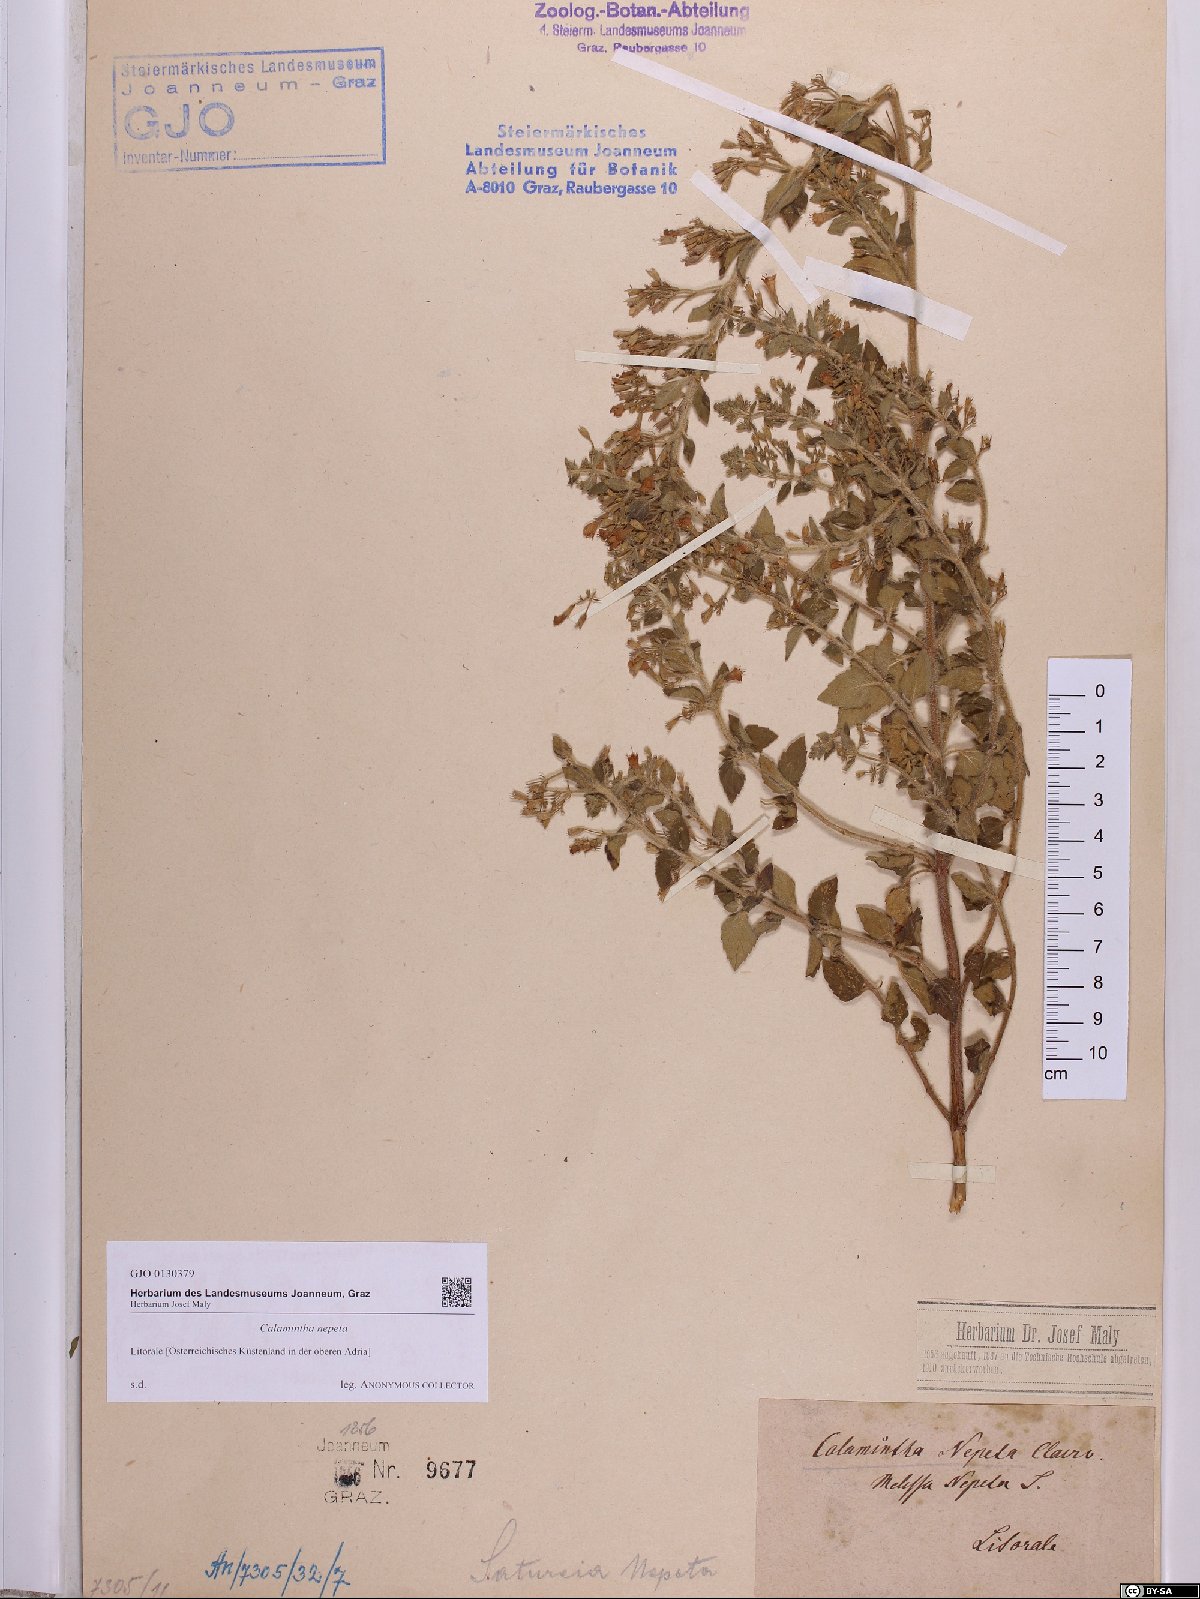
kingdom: Plantae
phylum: Tracheophyta
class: Magnoliopsida
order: Lamiales
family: Lamiaceae
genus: Clinopodium
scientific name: Clinopodium nepeta
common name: Lesser calamint
